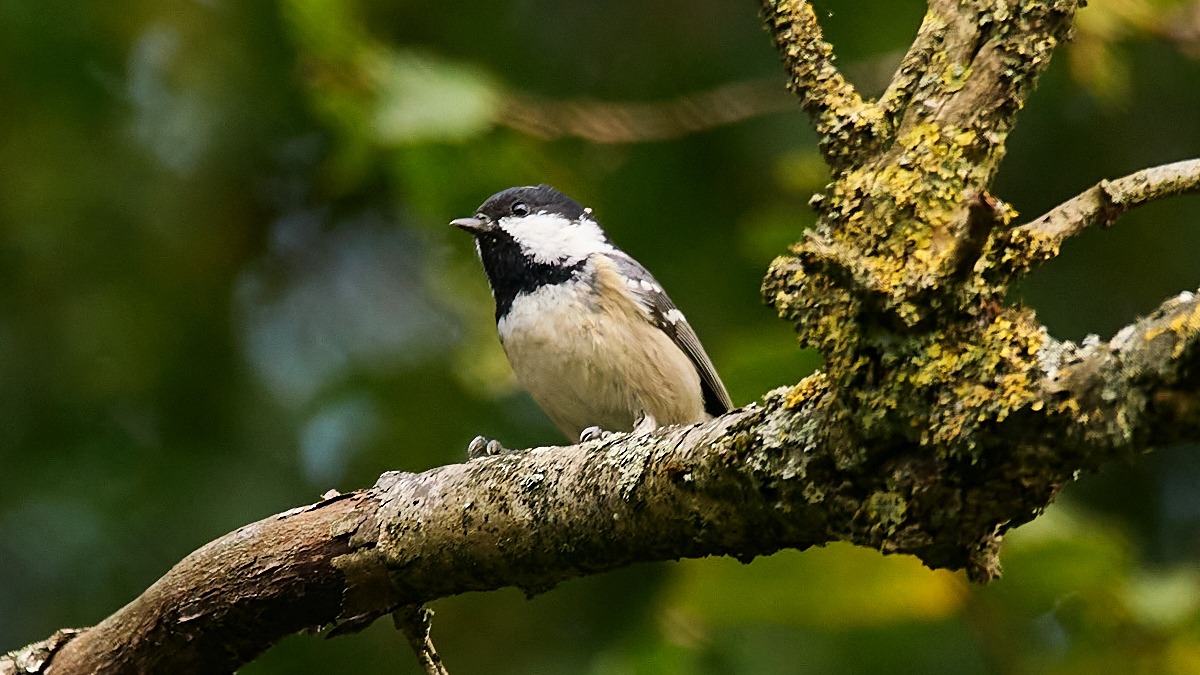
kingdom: Animalia
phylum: Chordata
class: Aves
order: Passeriformes
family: Paridae
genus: Periparus
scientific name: Periparus ater
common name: Sortmejse
